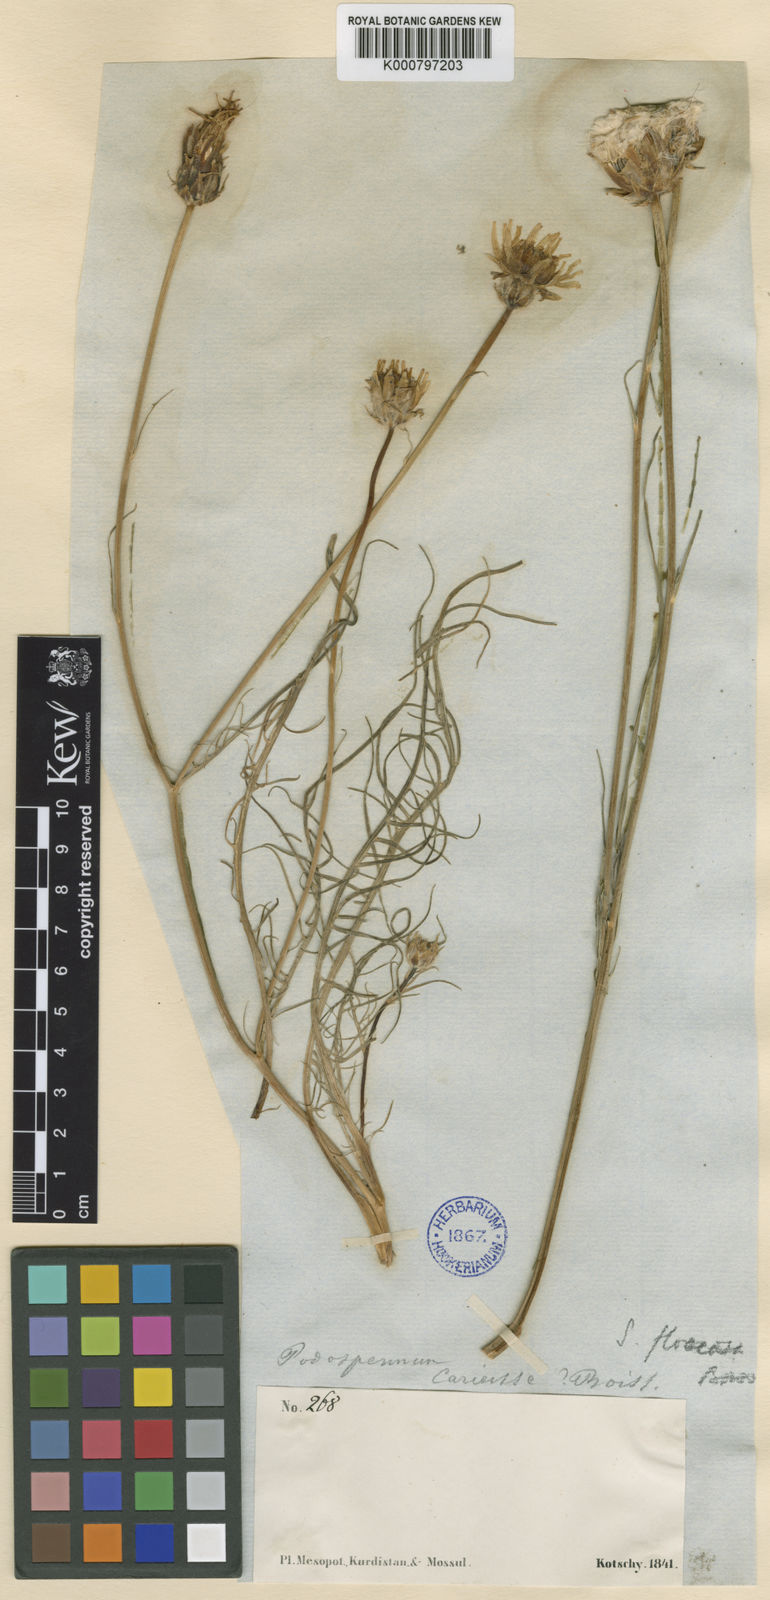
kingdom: Plantae
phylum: Tracheophyta
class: Magnoliopsida
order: Asterales
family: Asteraceae
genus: Scorzonera
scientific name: Scorzonera cana
